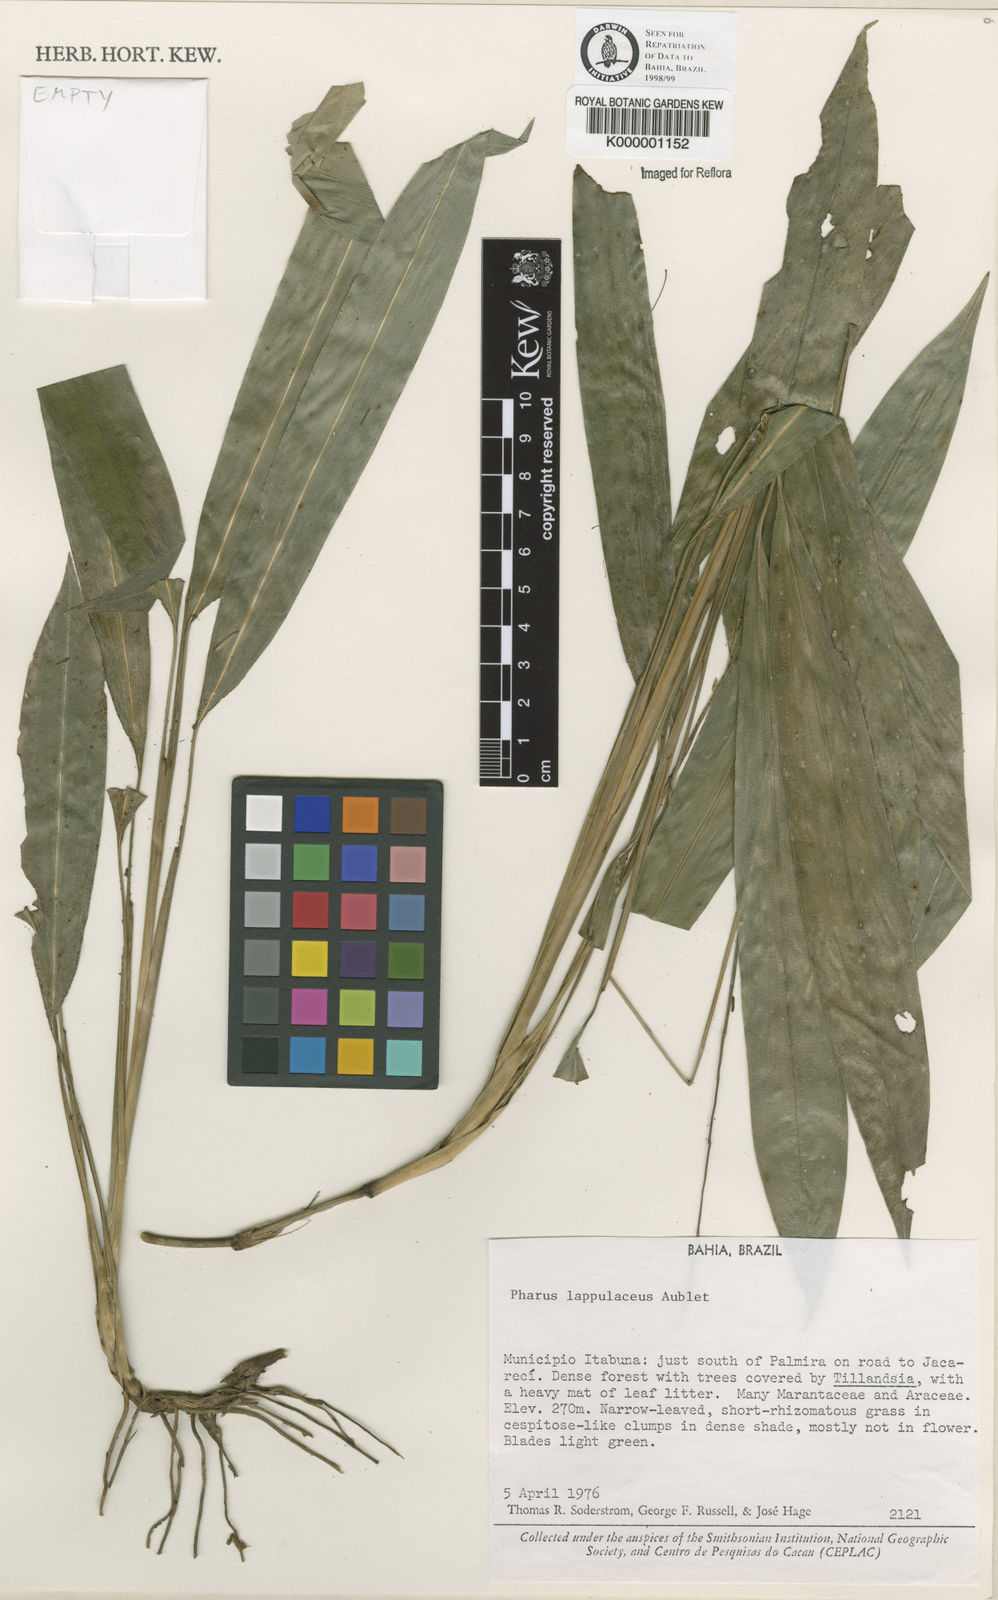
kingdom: Plantae
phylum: Tracheophyta
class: Liliopsida
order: Poales
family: Poaceae
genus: Pharus
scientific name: Pharus lappulaceus
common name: Creeping leafstalk grass
